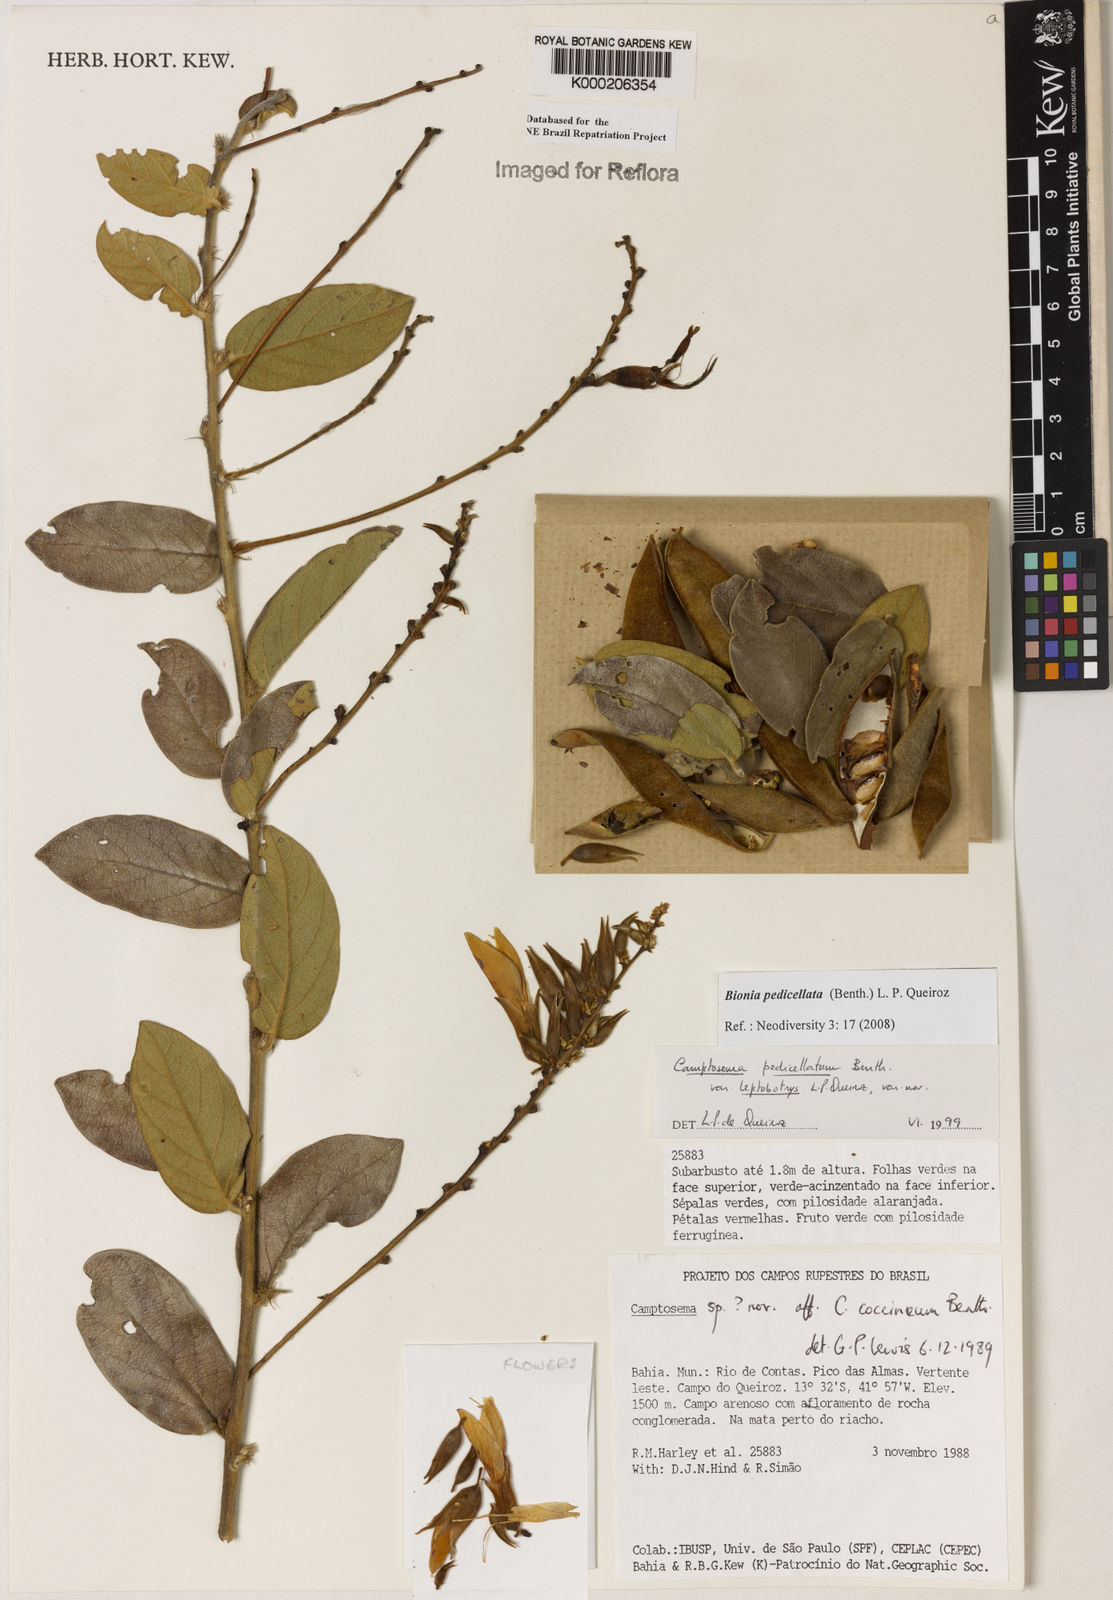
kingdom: Plantae
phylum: Tracheophyta
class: Magnoliopsida
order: Fabales
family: Fabaceae
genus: Camptosema
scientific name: Camptosema pedicellatum
